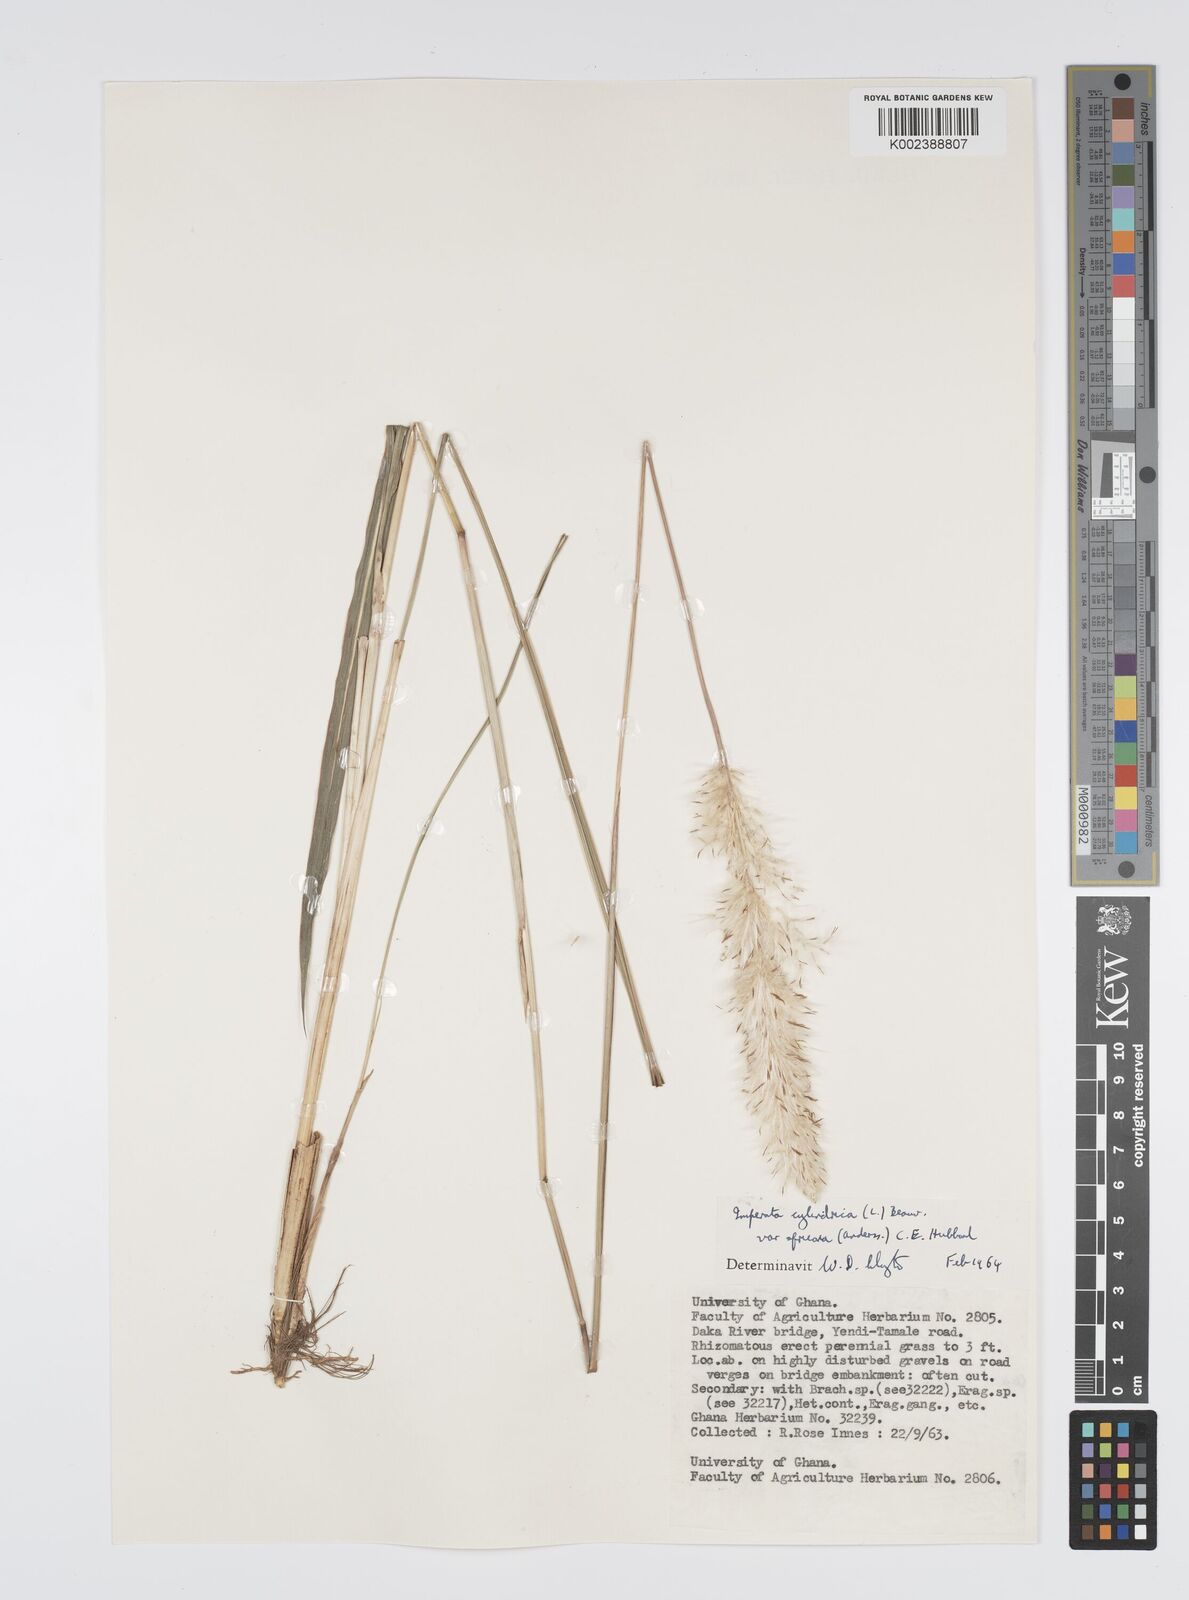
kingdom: Plantae
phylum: Tracheophyta
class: Liliopsida
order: Poales
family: Poaceae
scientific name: Poaceae
